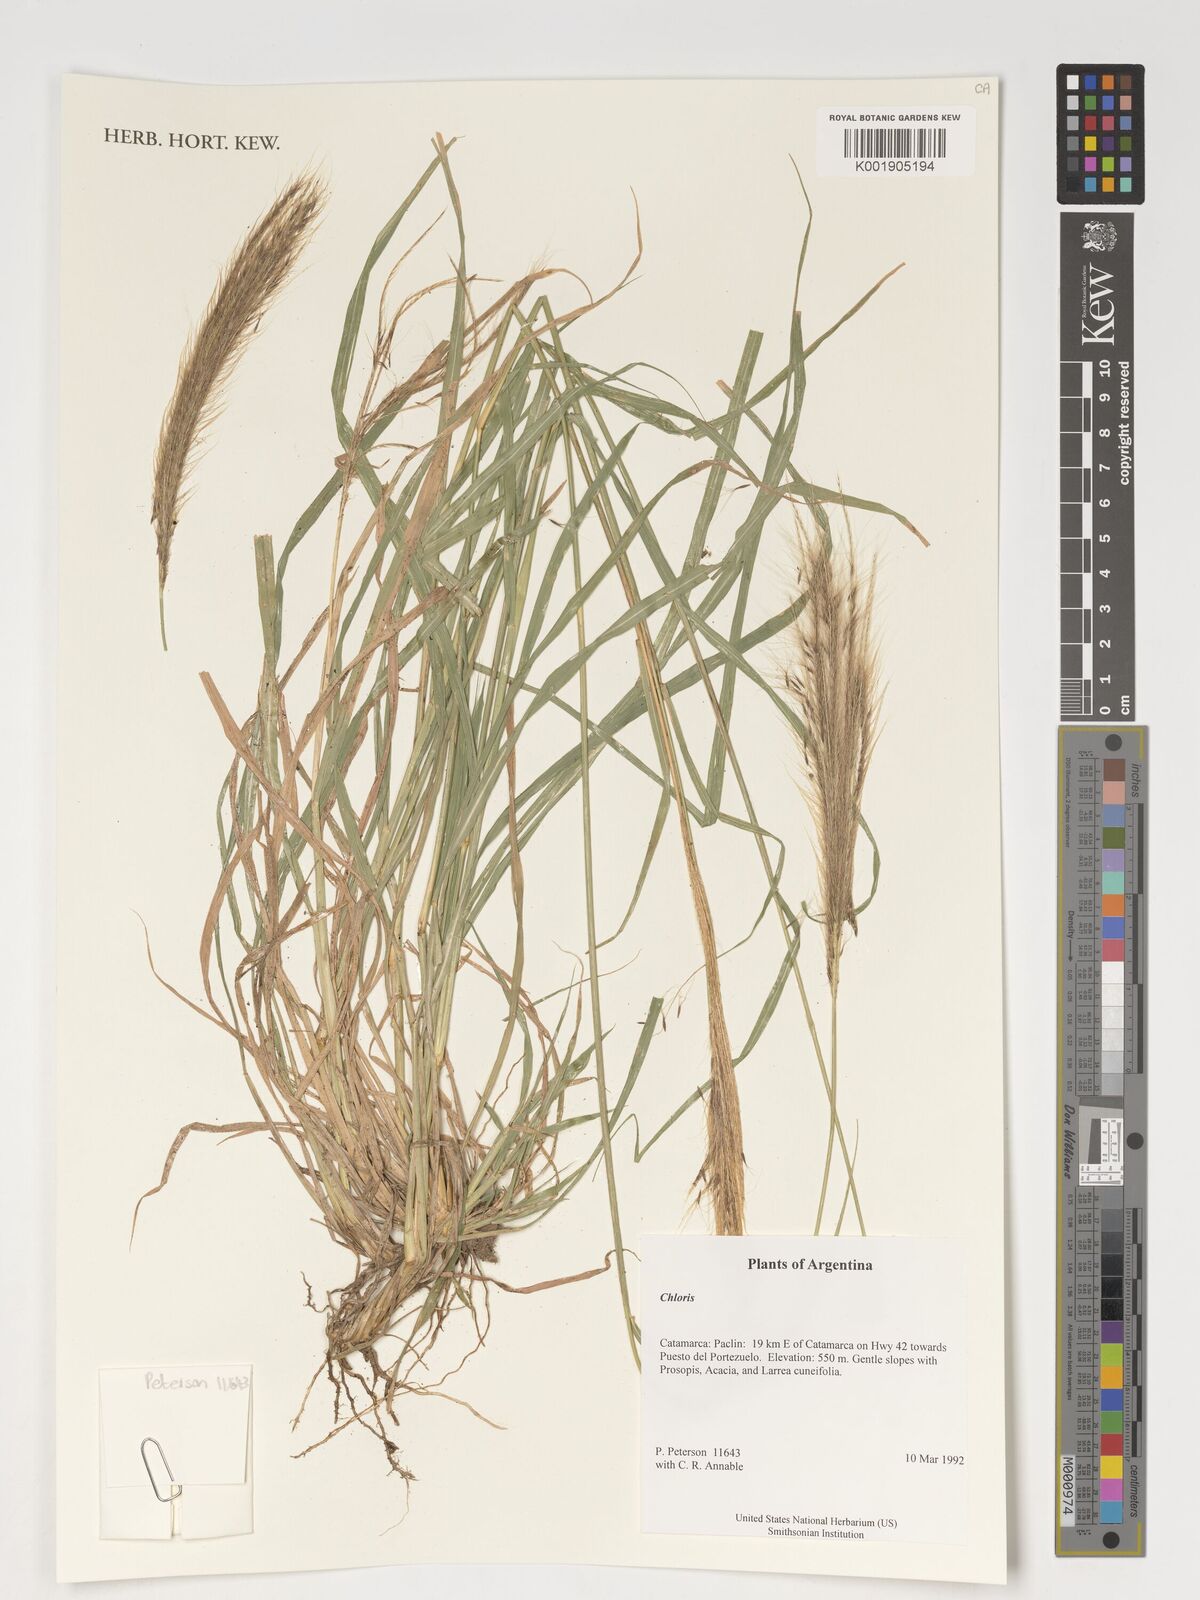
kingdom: Plantae
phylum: Tracheophyta
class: Liliopsida
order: Poales
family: Poaceae
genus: Chloris
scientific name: Chloris
